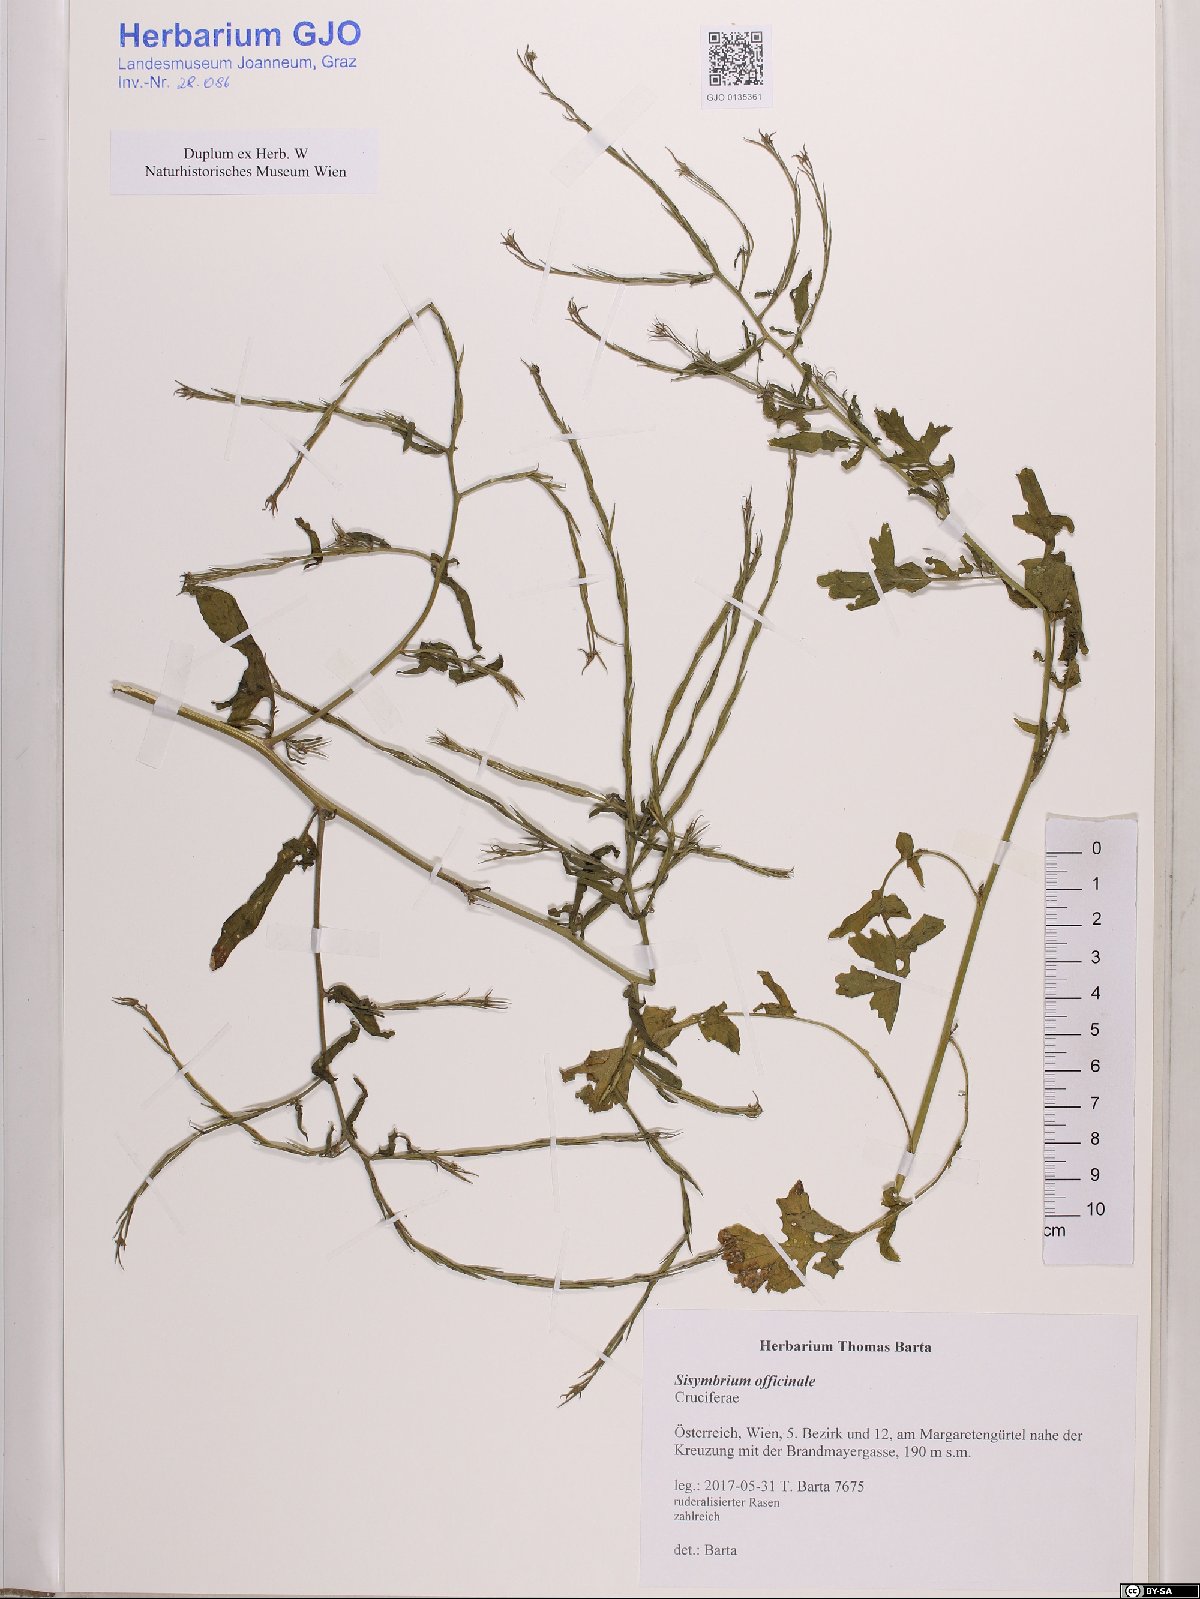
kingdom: Plantae
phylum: Tracheophyta
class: Magnoliopsida
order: Brassicales
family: Brassicaceae
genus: Sisymbrium
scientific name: Sisymbrium officinale
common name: Hedge mustard
